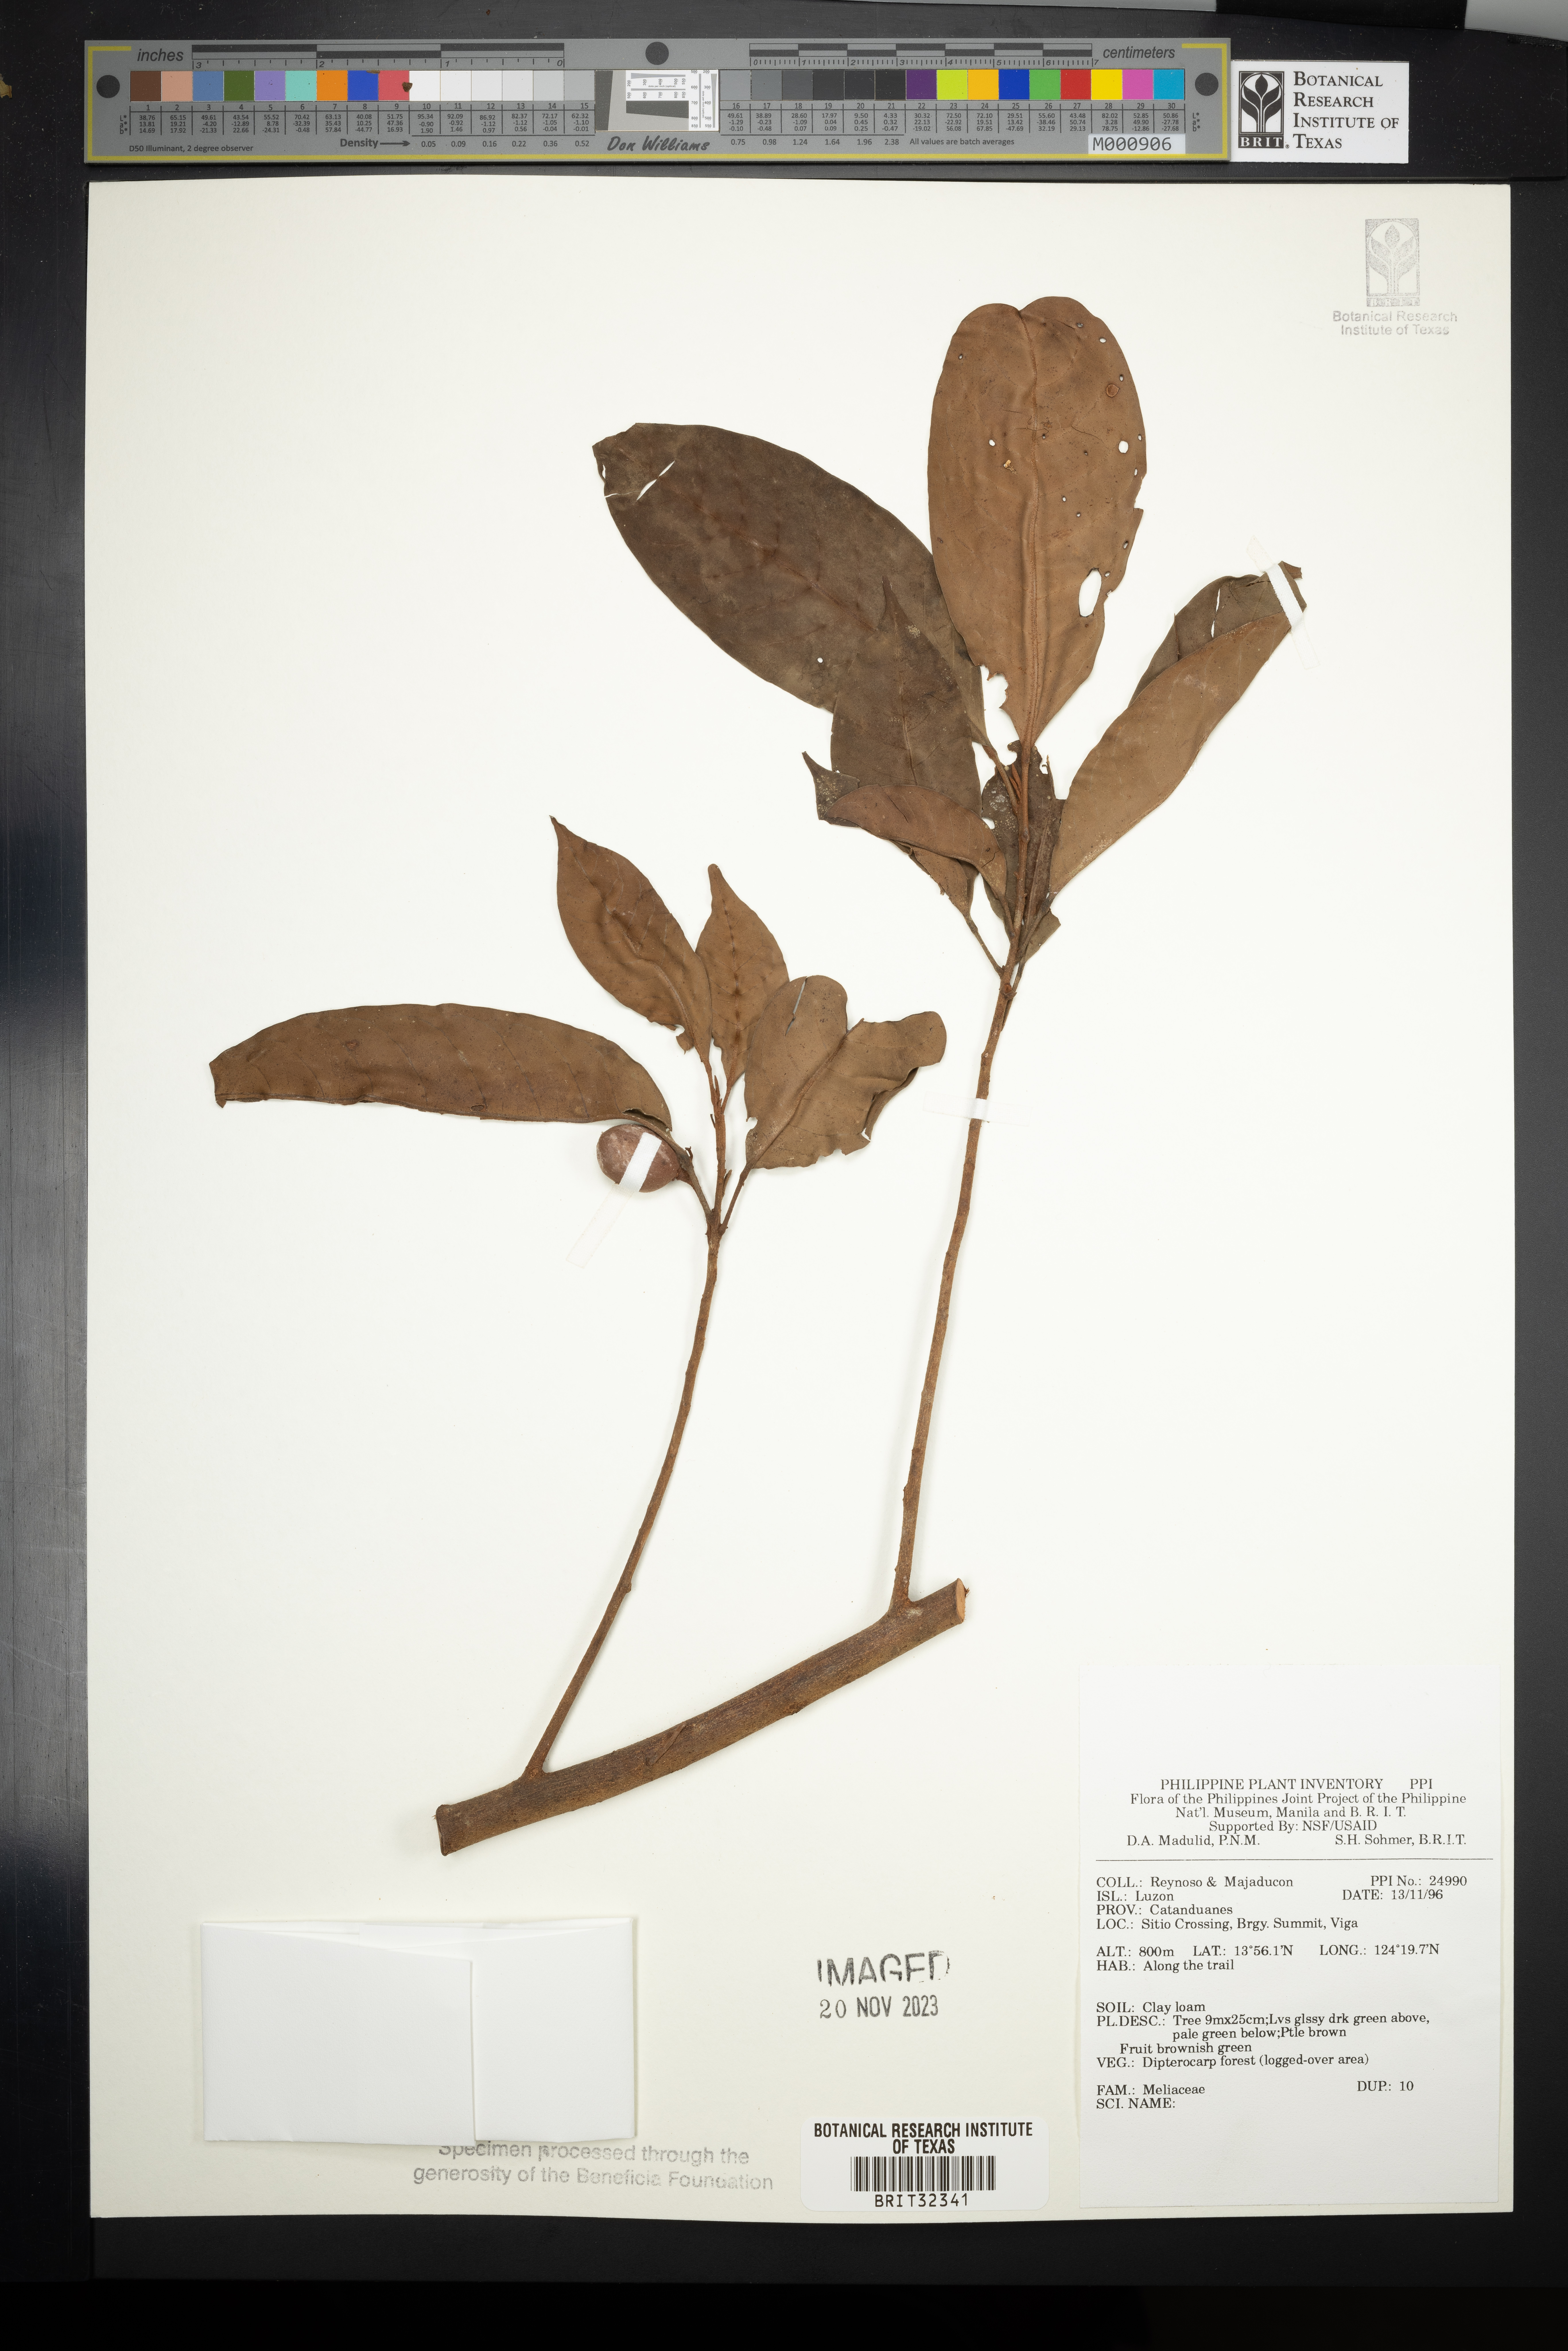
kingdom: Plantae
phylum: Tracheophyta
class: Magnoliopsida
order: Sapindales
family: Meliaceae
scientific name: Meliaceae
